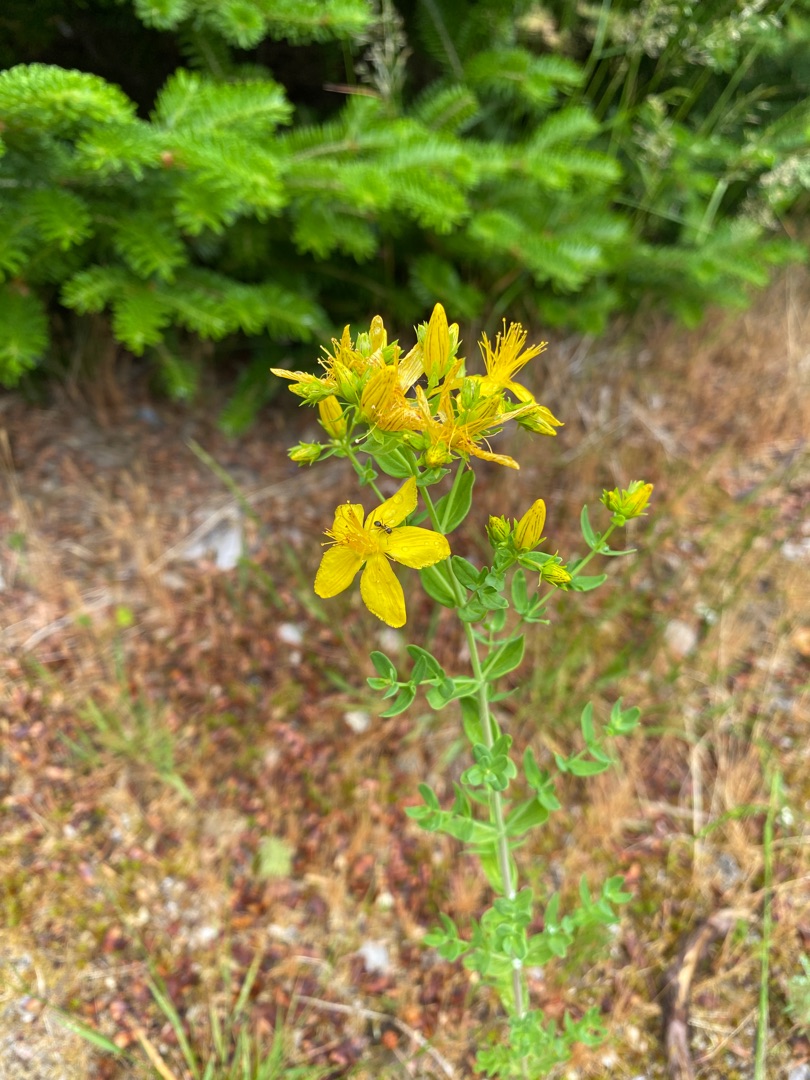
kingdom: Plantae
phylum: Tracheophyta
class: Magnoliopsida
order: Malpighiales
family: Hypericaceae
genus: Hypericum
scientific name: Hypericum perforatum
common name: Prikbladet perikon
